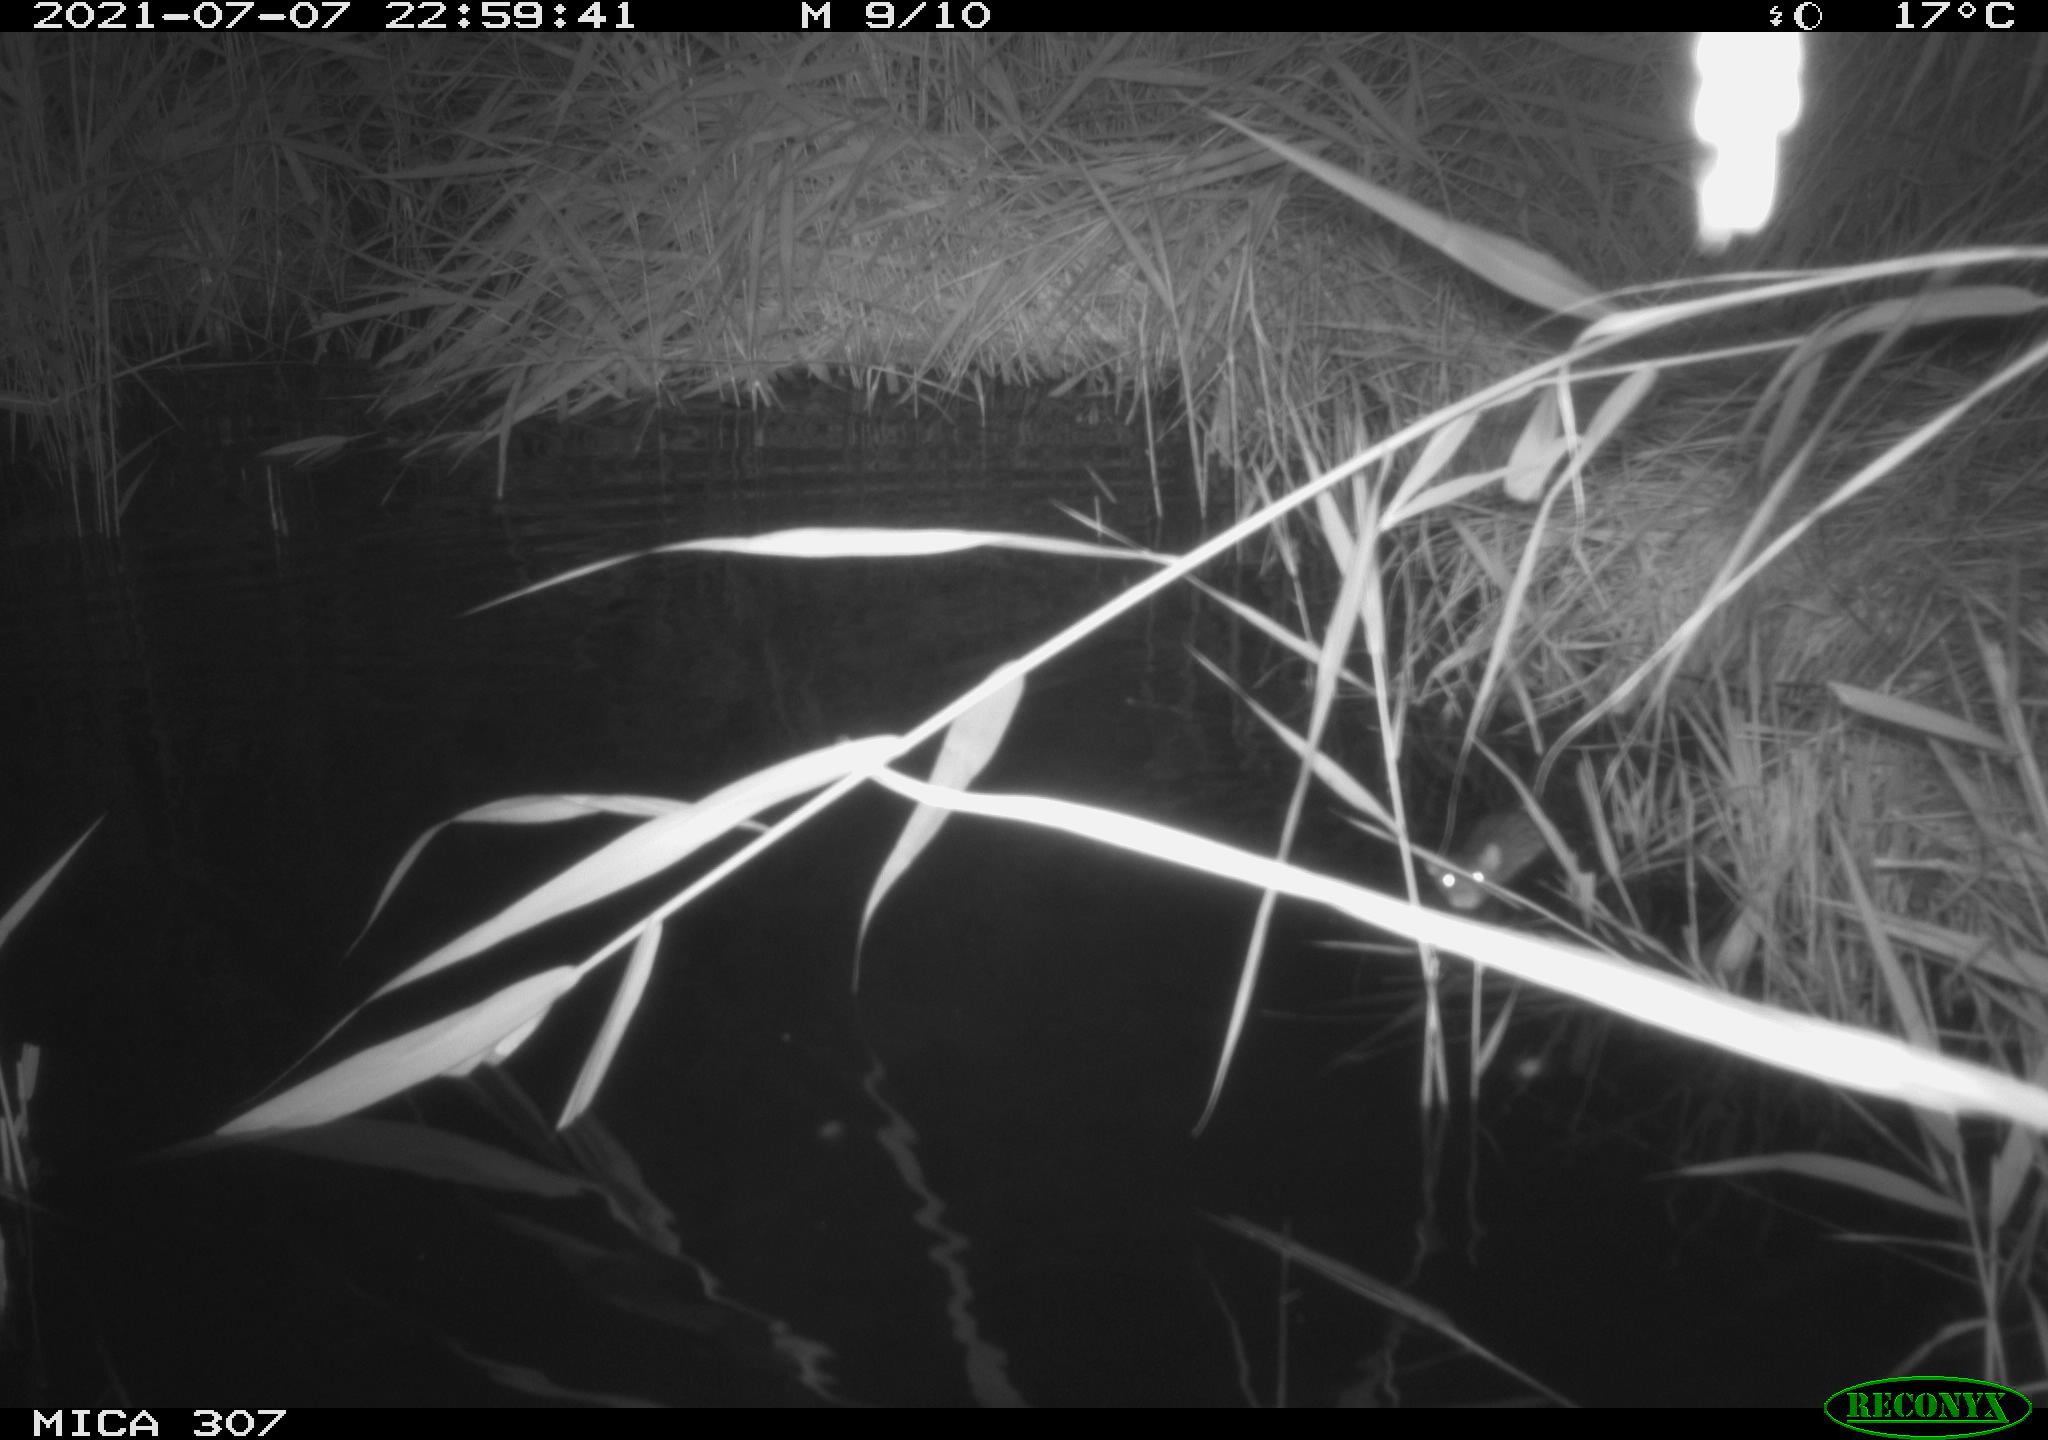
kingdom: Animalia
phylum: Chordata
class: Mammalia
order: Rodentia
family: Muridae
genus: Rattus
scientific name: Rattus norvegicus
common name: Brown rat
